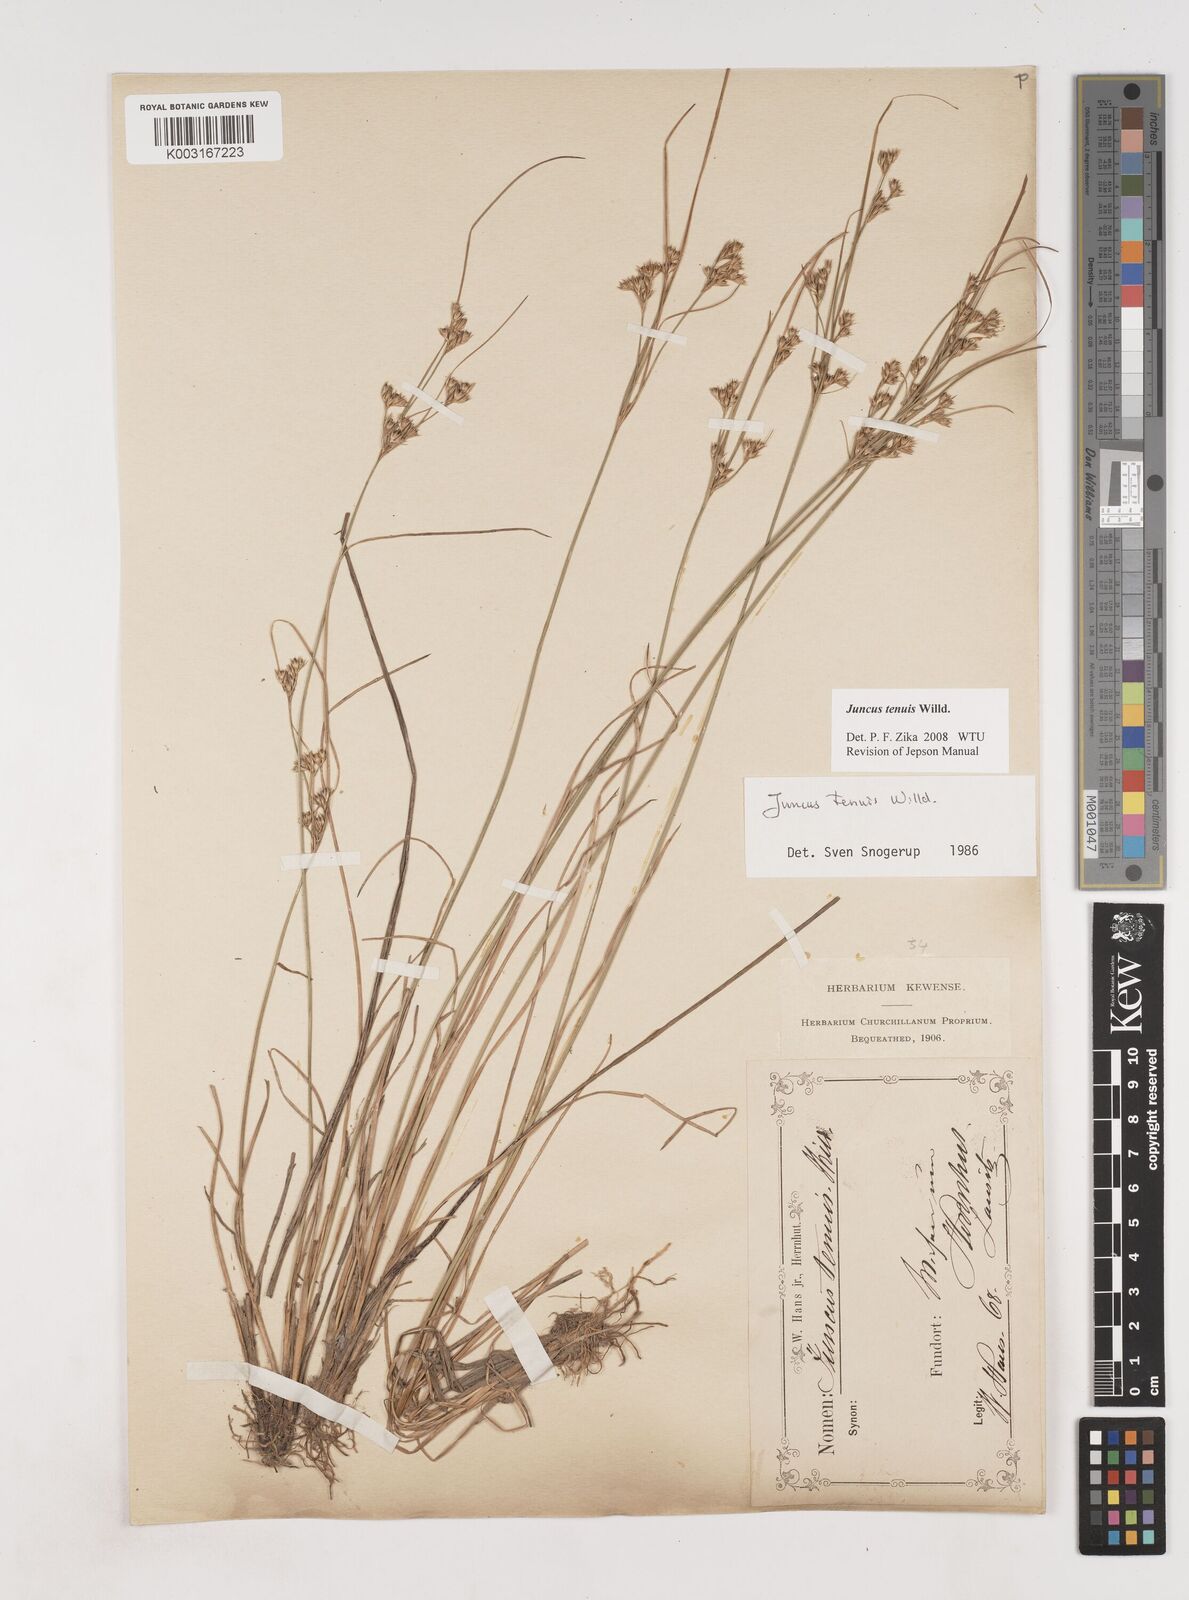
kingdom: Plantae
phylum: Tracheophyta
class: Liliopsida
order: Poales
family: Juncaceae
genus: Juncus
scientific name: Juncus tenuis
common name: Slender rush
